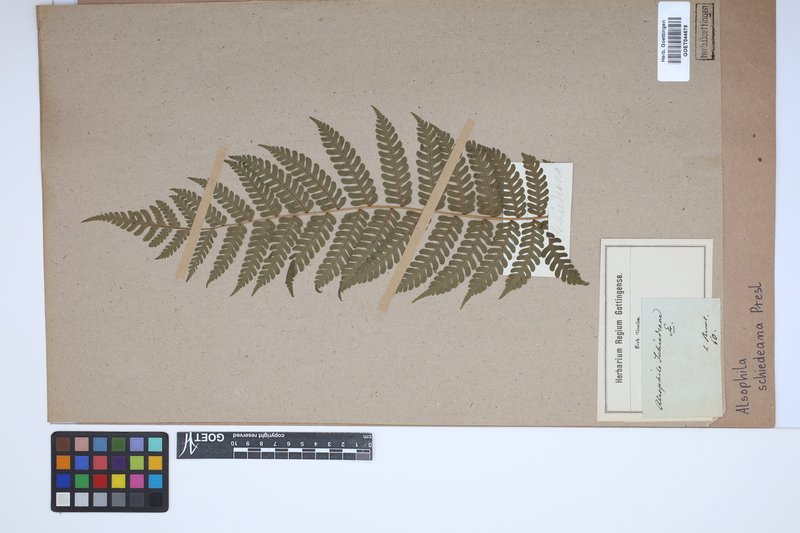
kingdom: Plantae
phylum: Tracheophyta
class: Polypodiopsida
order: Cyatheales
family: Cyatheaceae
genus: Cyathea
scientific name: Cyathea schiedeana
